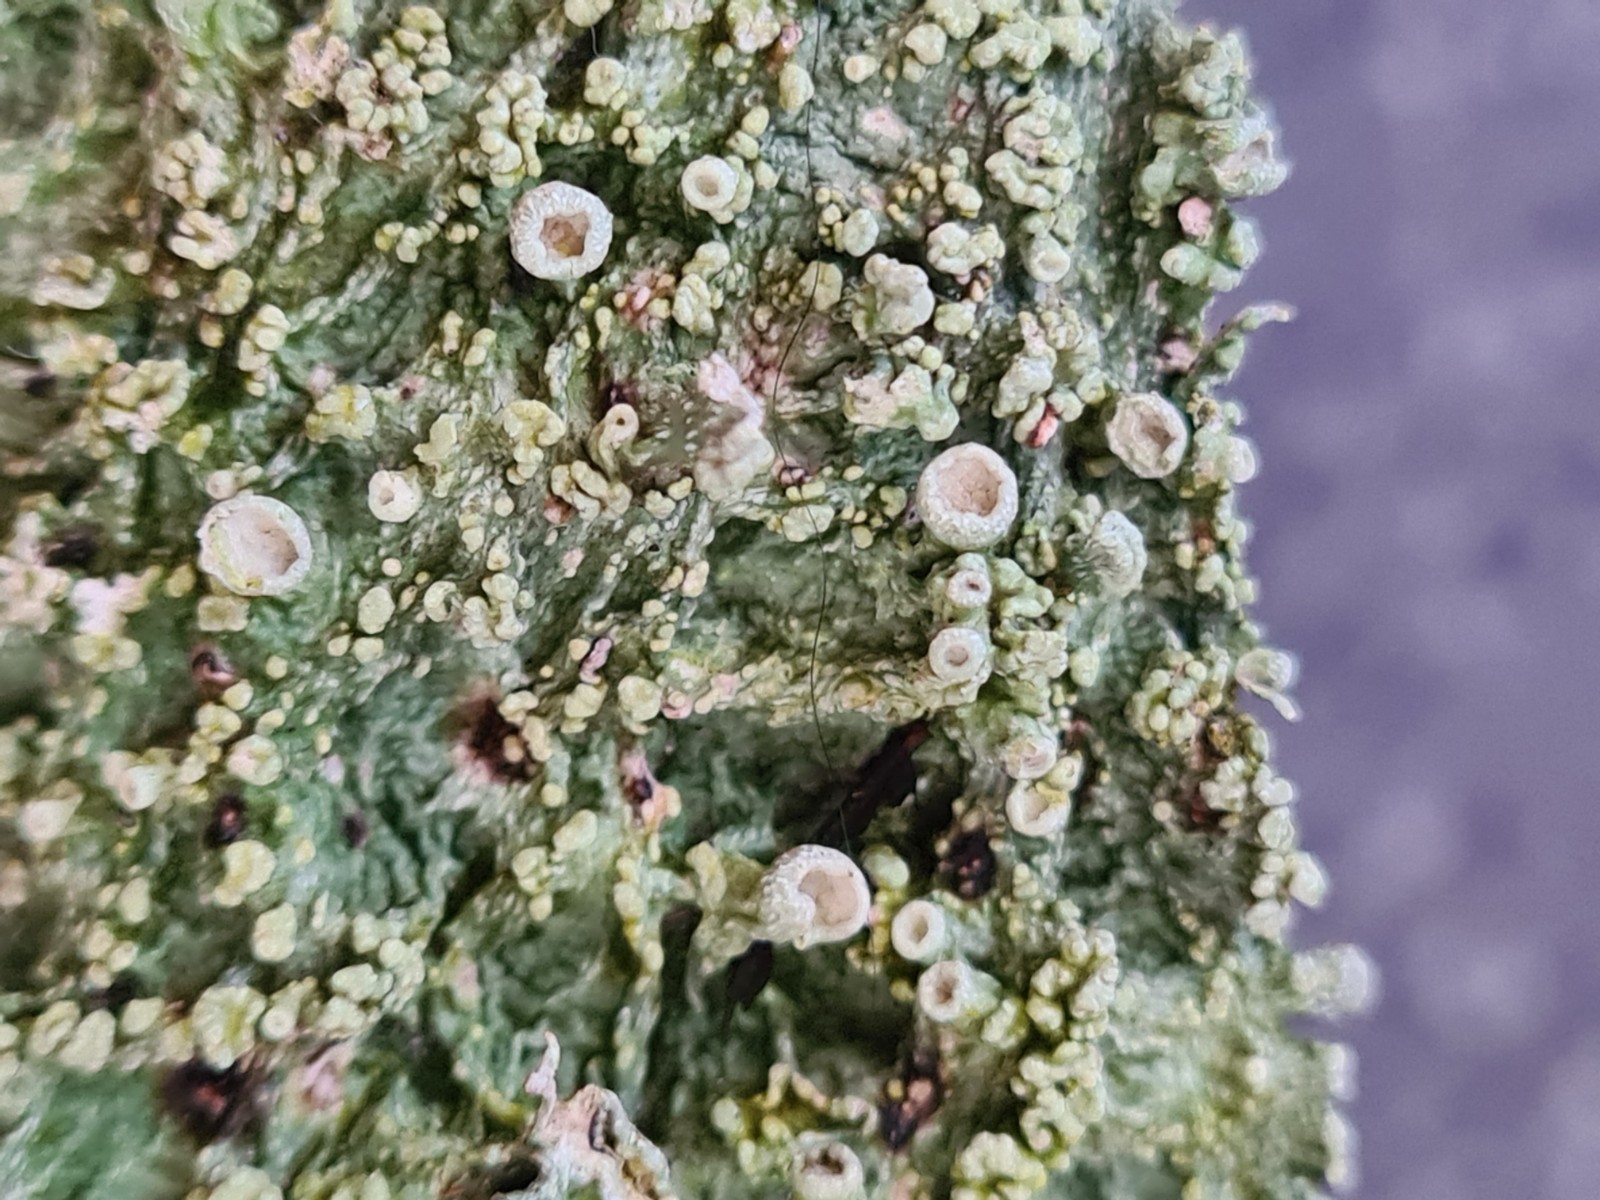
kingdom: Fungi
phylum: Ascomycota
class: Lecanoromycetes
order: Lecanorales
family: Ramalinaceae
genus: Ramalina
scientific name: Ramalina fraxinea
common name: stor grenlav
